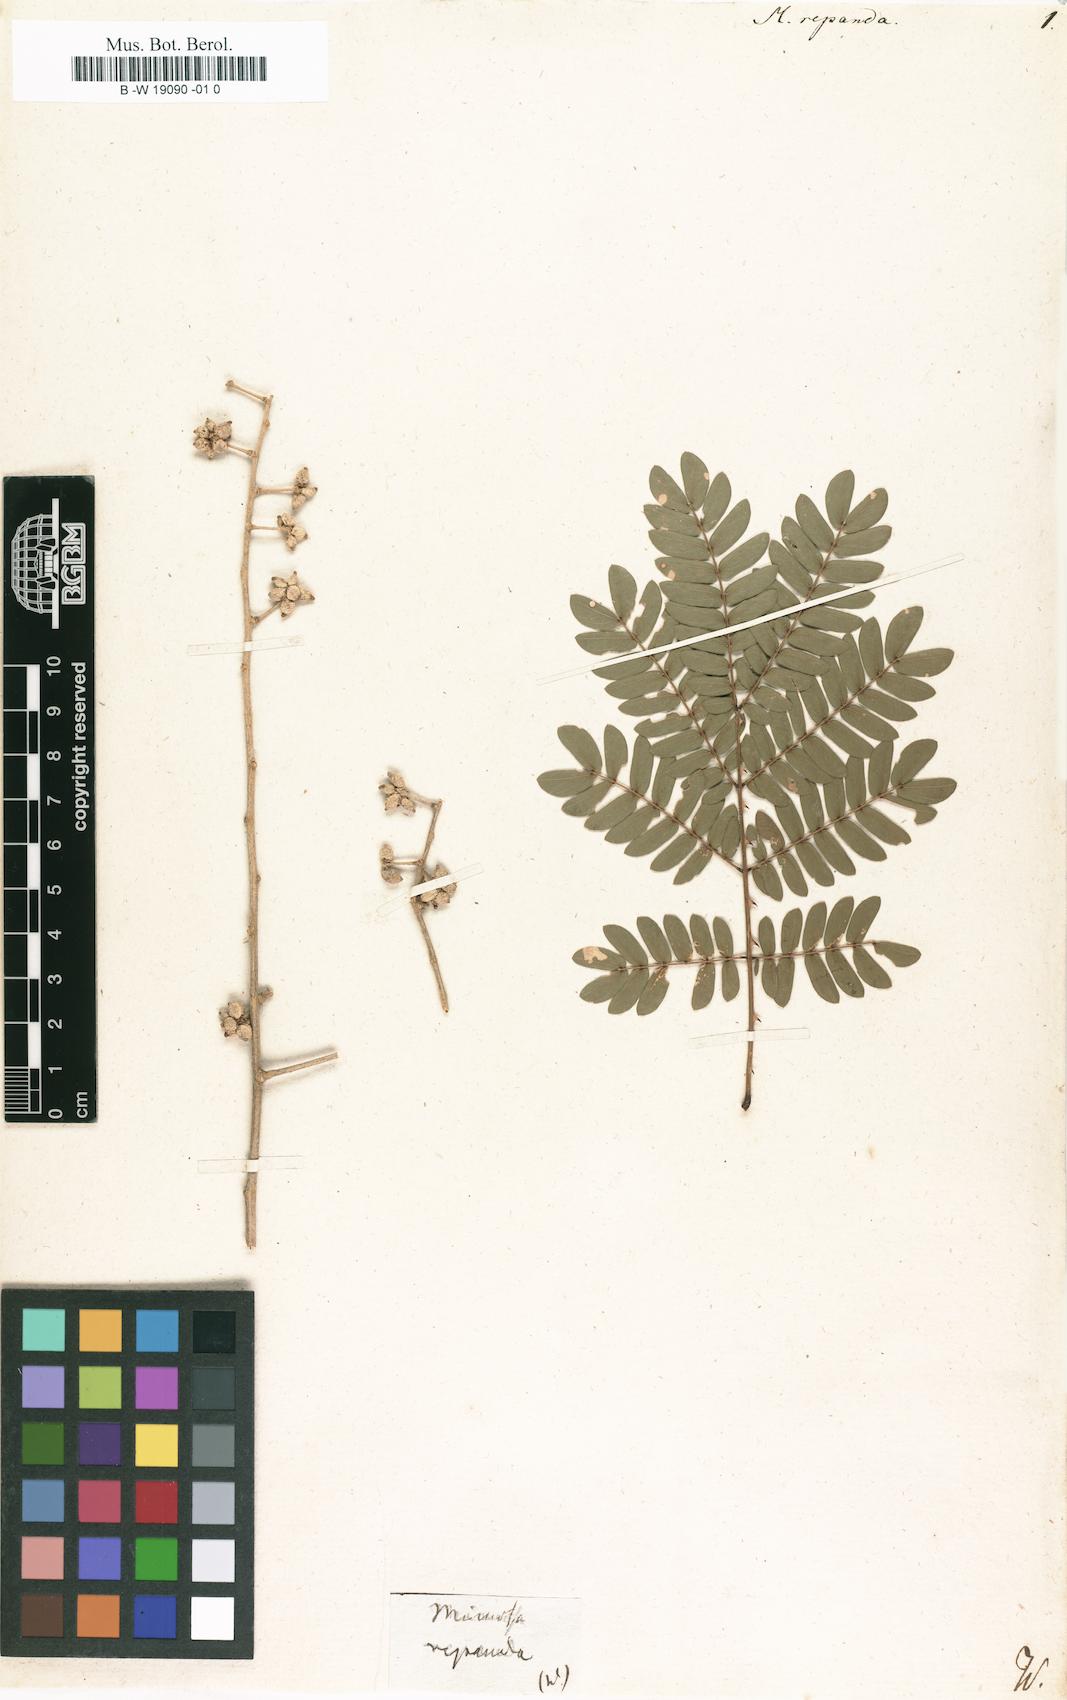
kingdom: Plantae
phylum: Tracheophyta
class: Magnoliopsida
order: Fabales
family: Fabaceae
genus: Mimosa
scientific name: Mimosa
